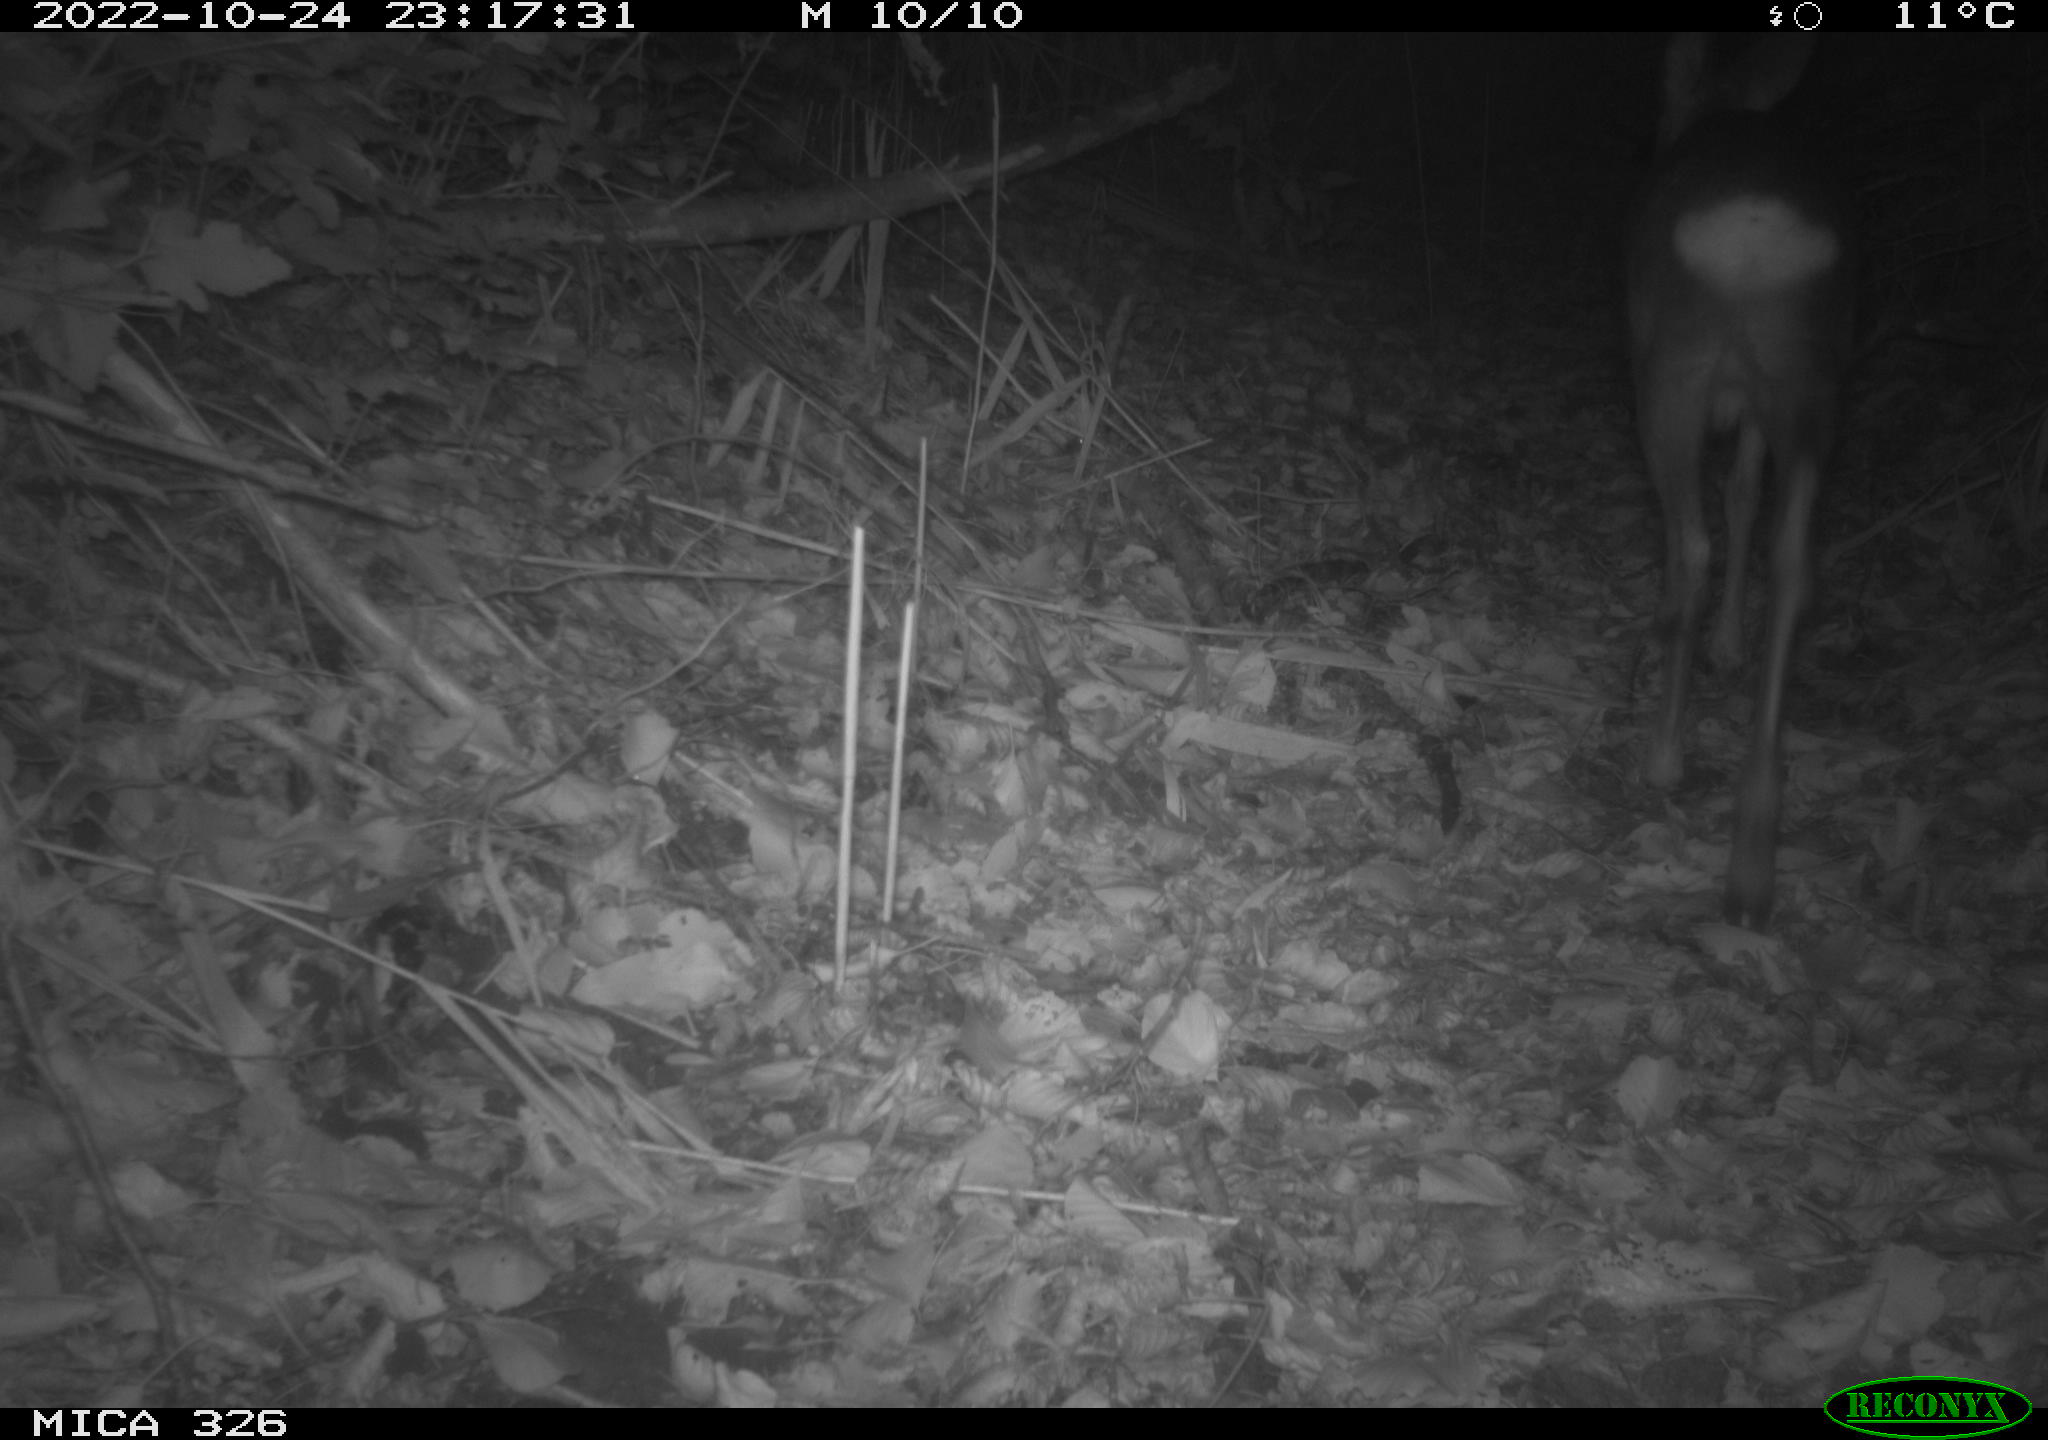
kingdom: Animalia
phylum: Chordata
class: Mammalia
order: Artiodactyla
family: Cervidae
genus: Capreolus
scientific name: Capreolus capreolus
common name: Western roe deer
